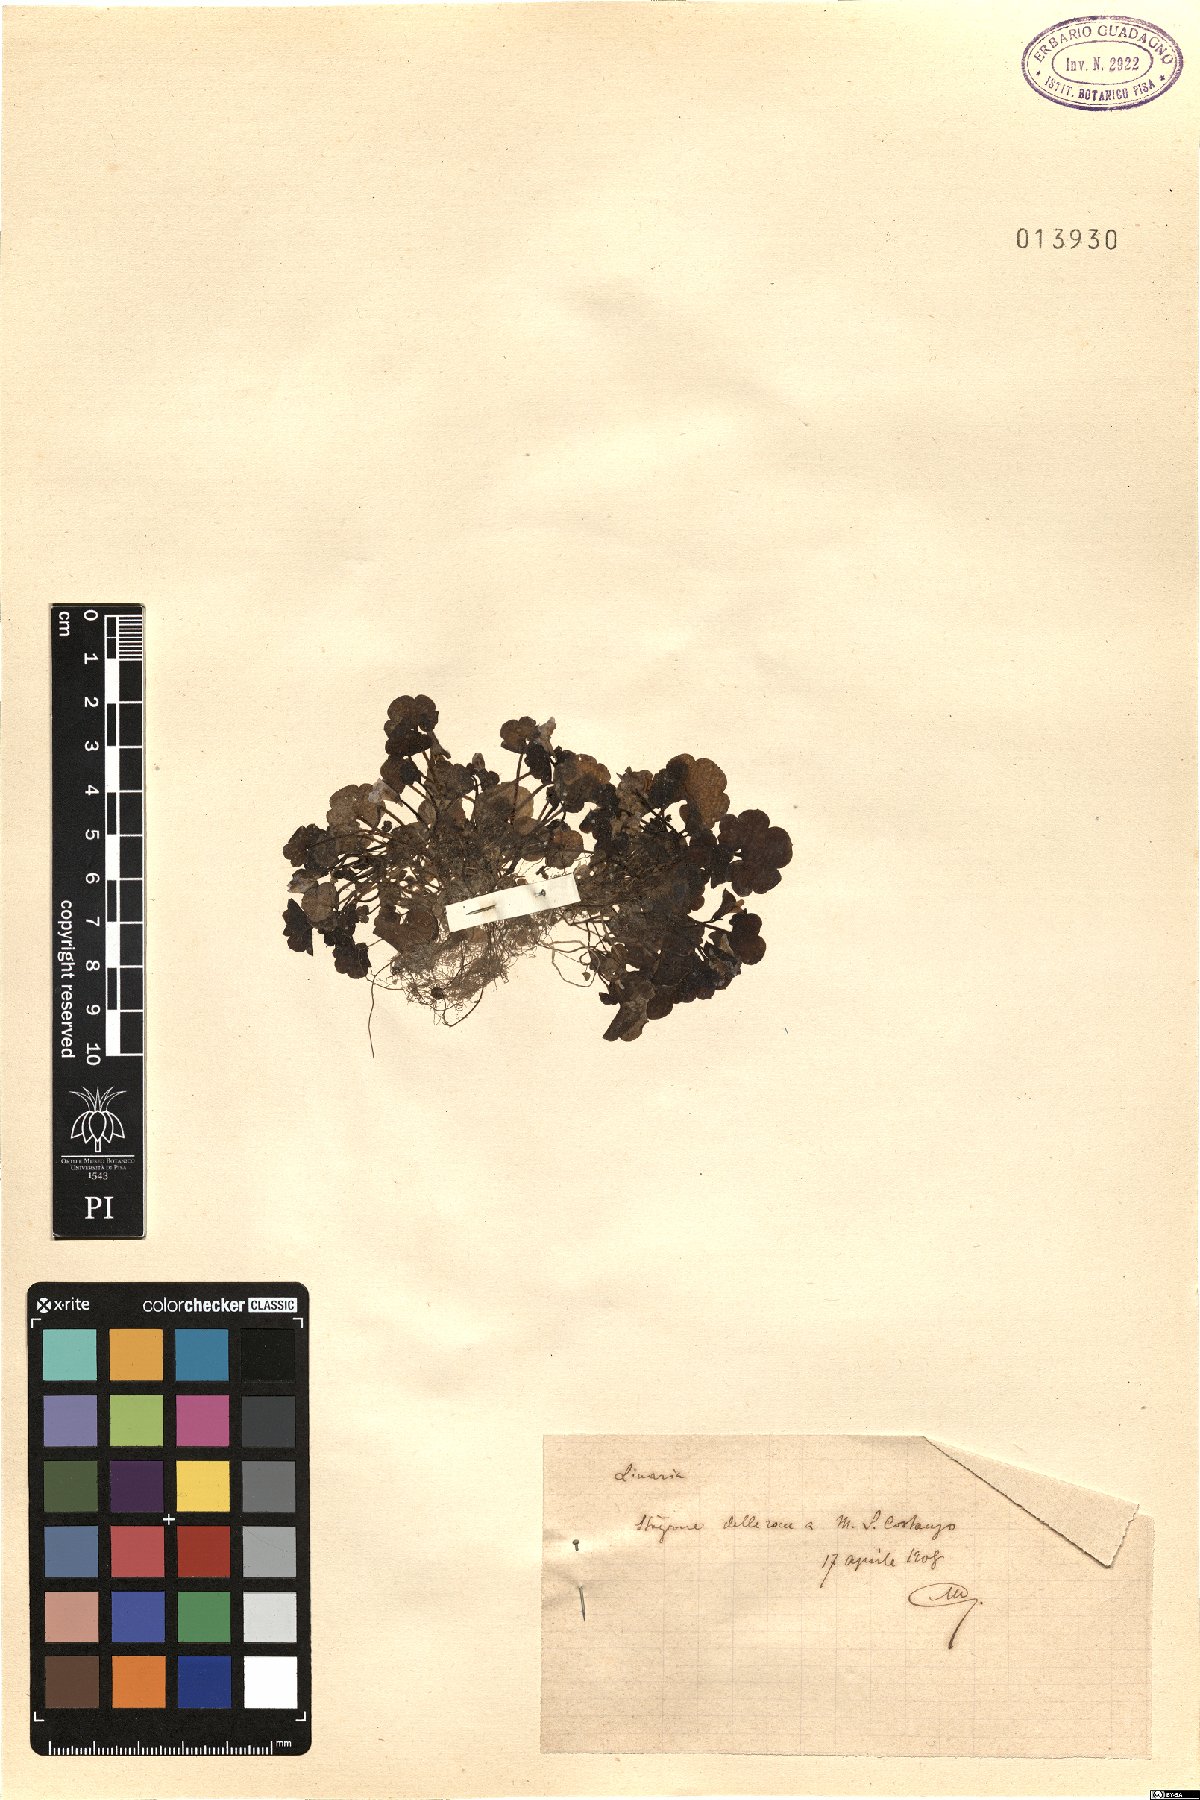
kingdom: Plantae
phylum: Tracheophyta
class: Magnoliopsida
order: Lamiales
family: Plantaginaceae
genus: Linaria
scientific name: Linaria
